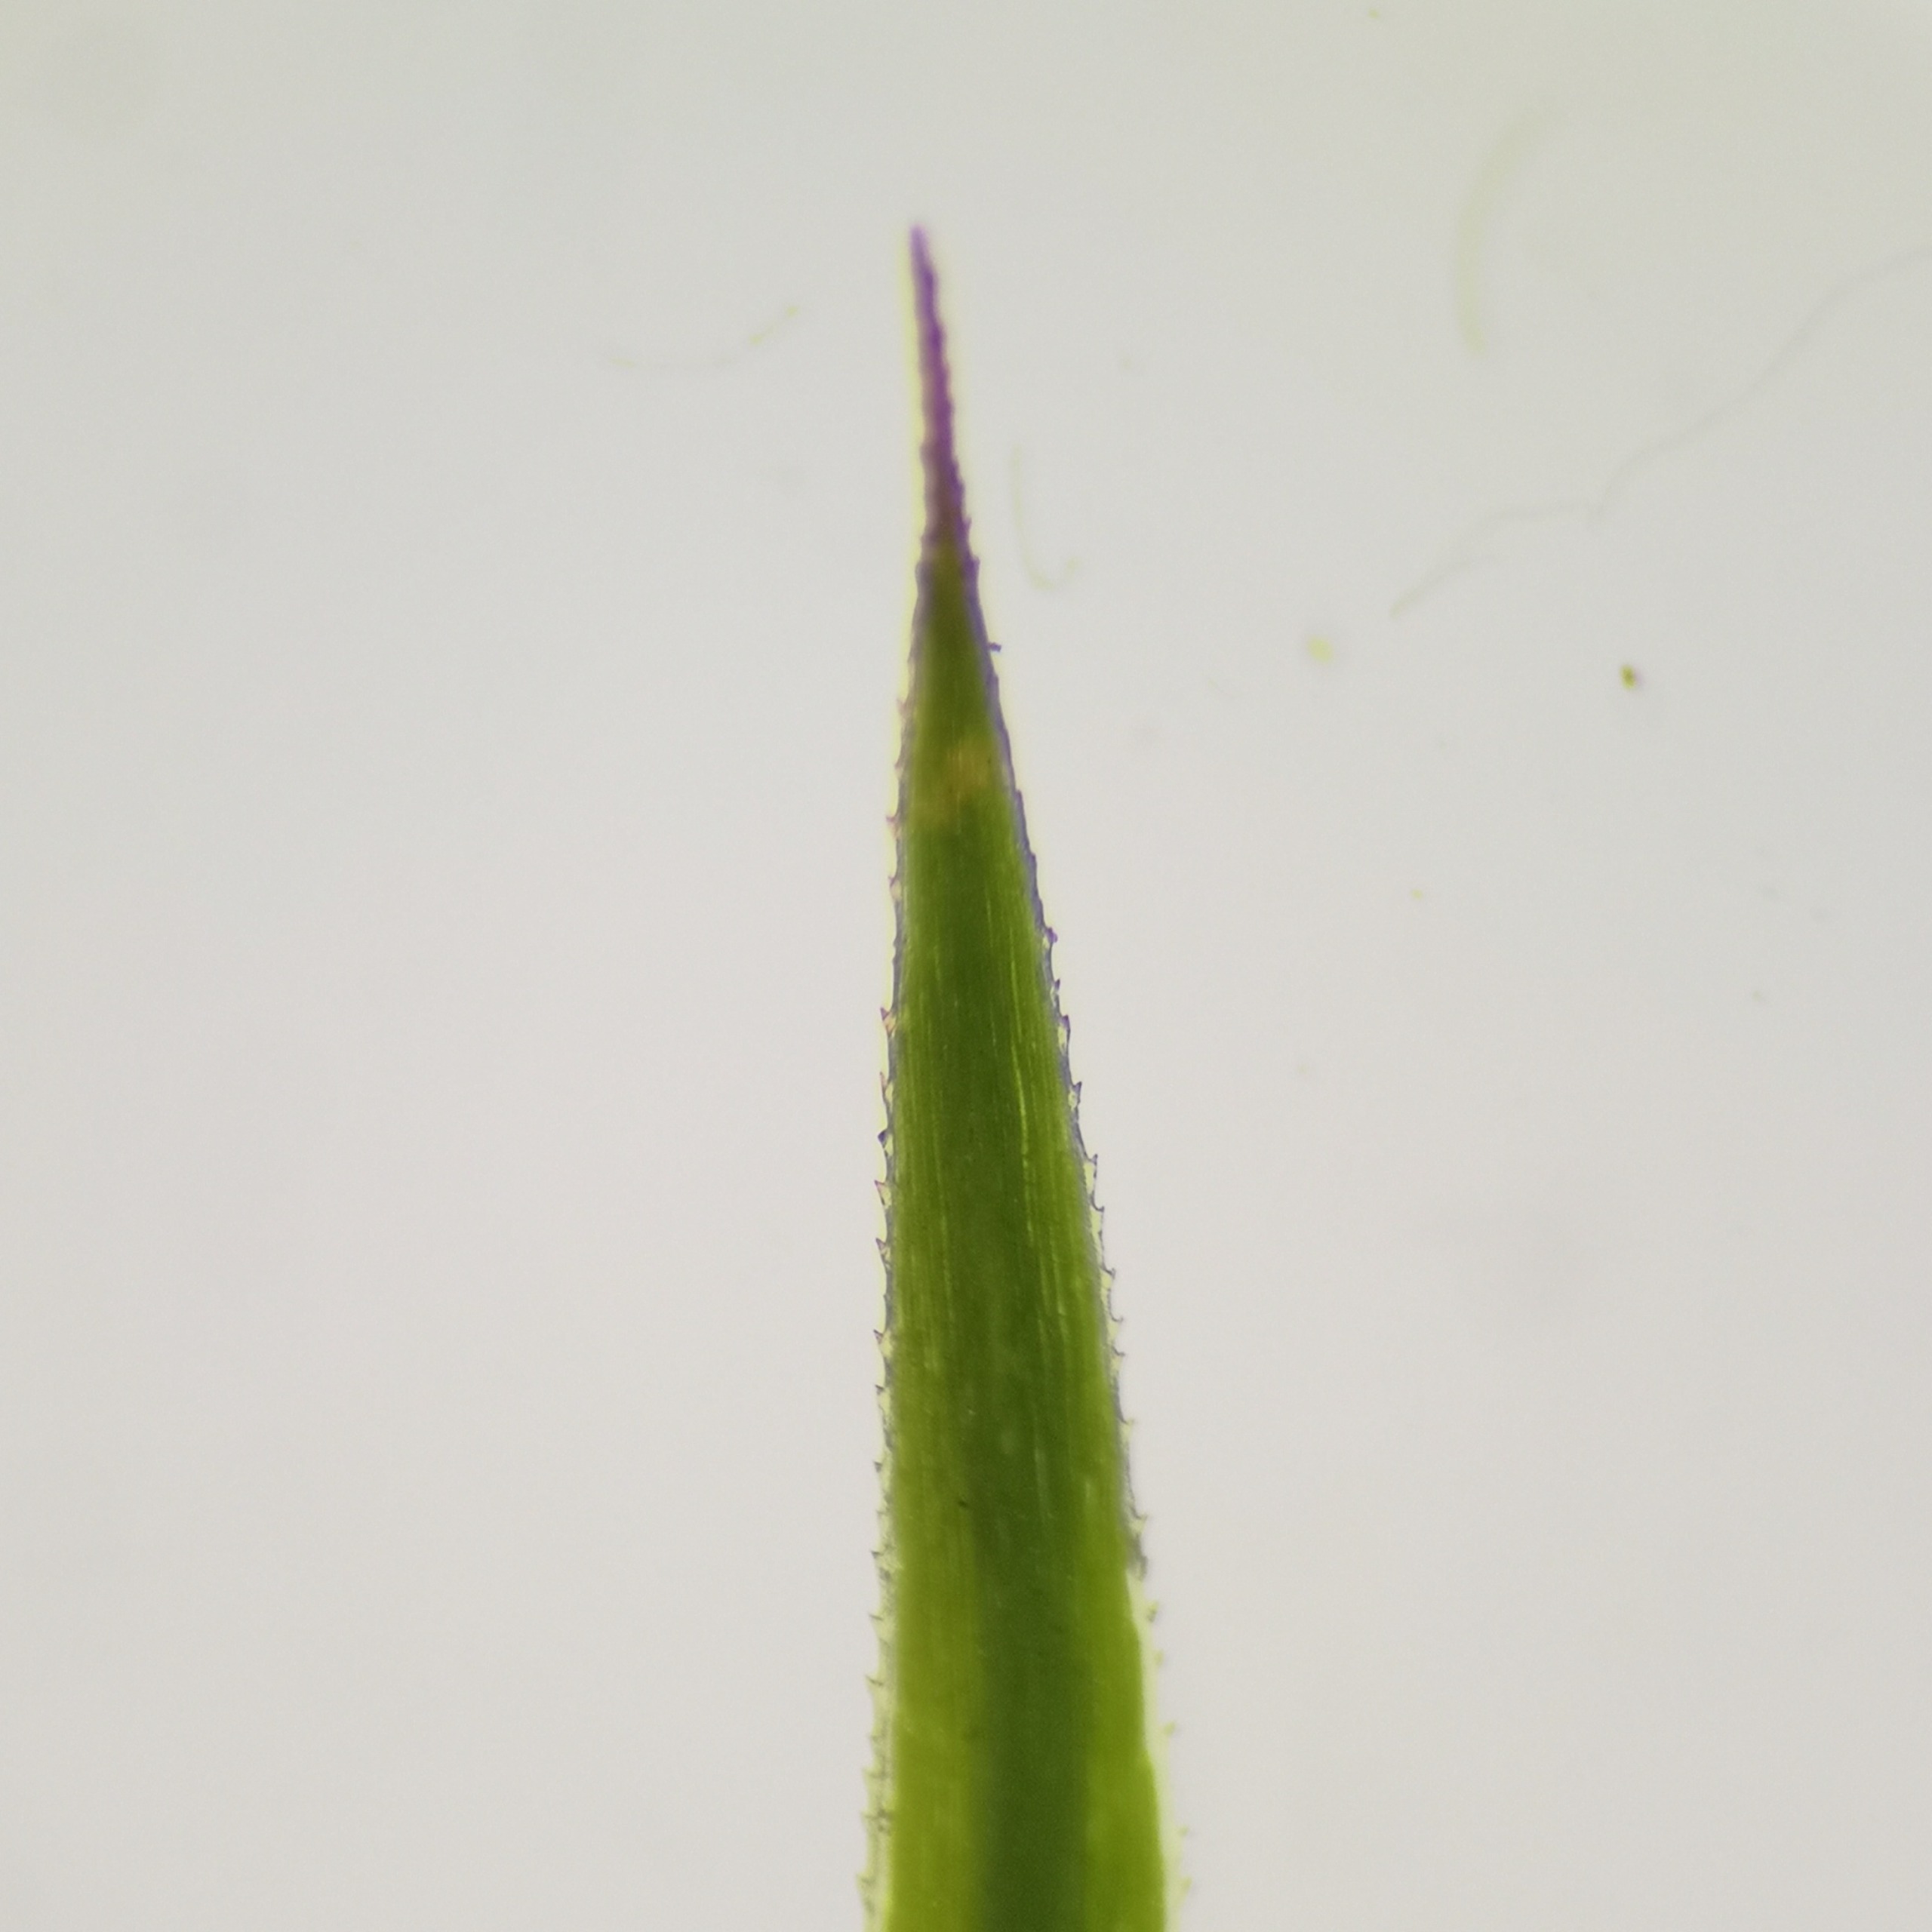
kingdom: Plantae
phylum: Bryophyta
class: Polytrichopsida
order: Polytrichales
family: Polytrichaceae
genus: Polytrichum
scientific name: Polytrichum formosum
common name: Skov-jomfruhår
